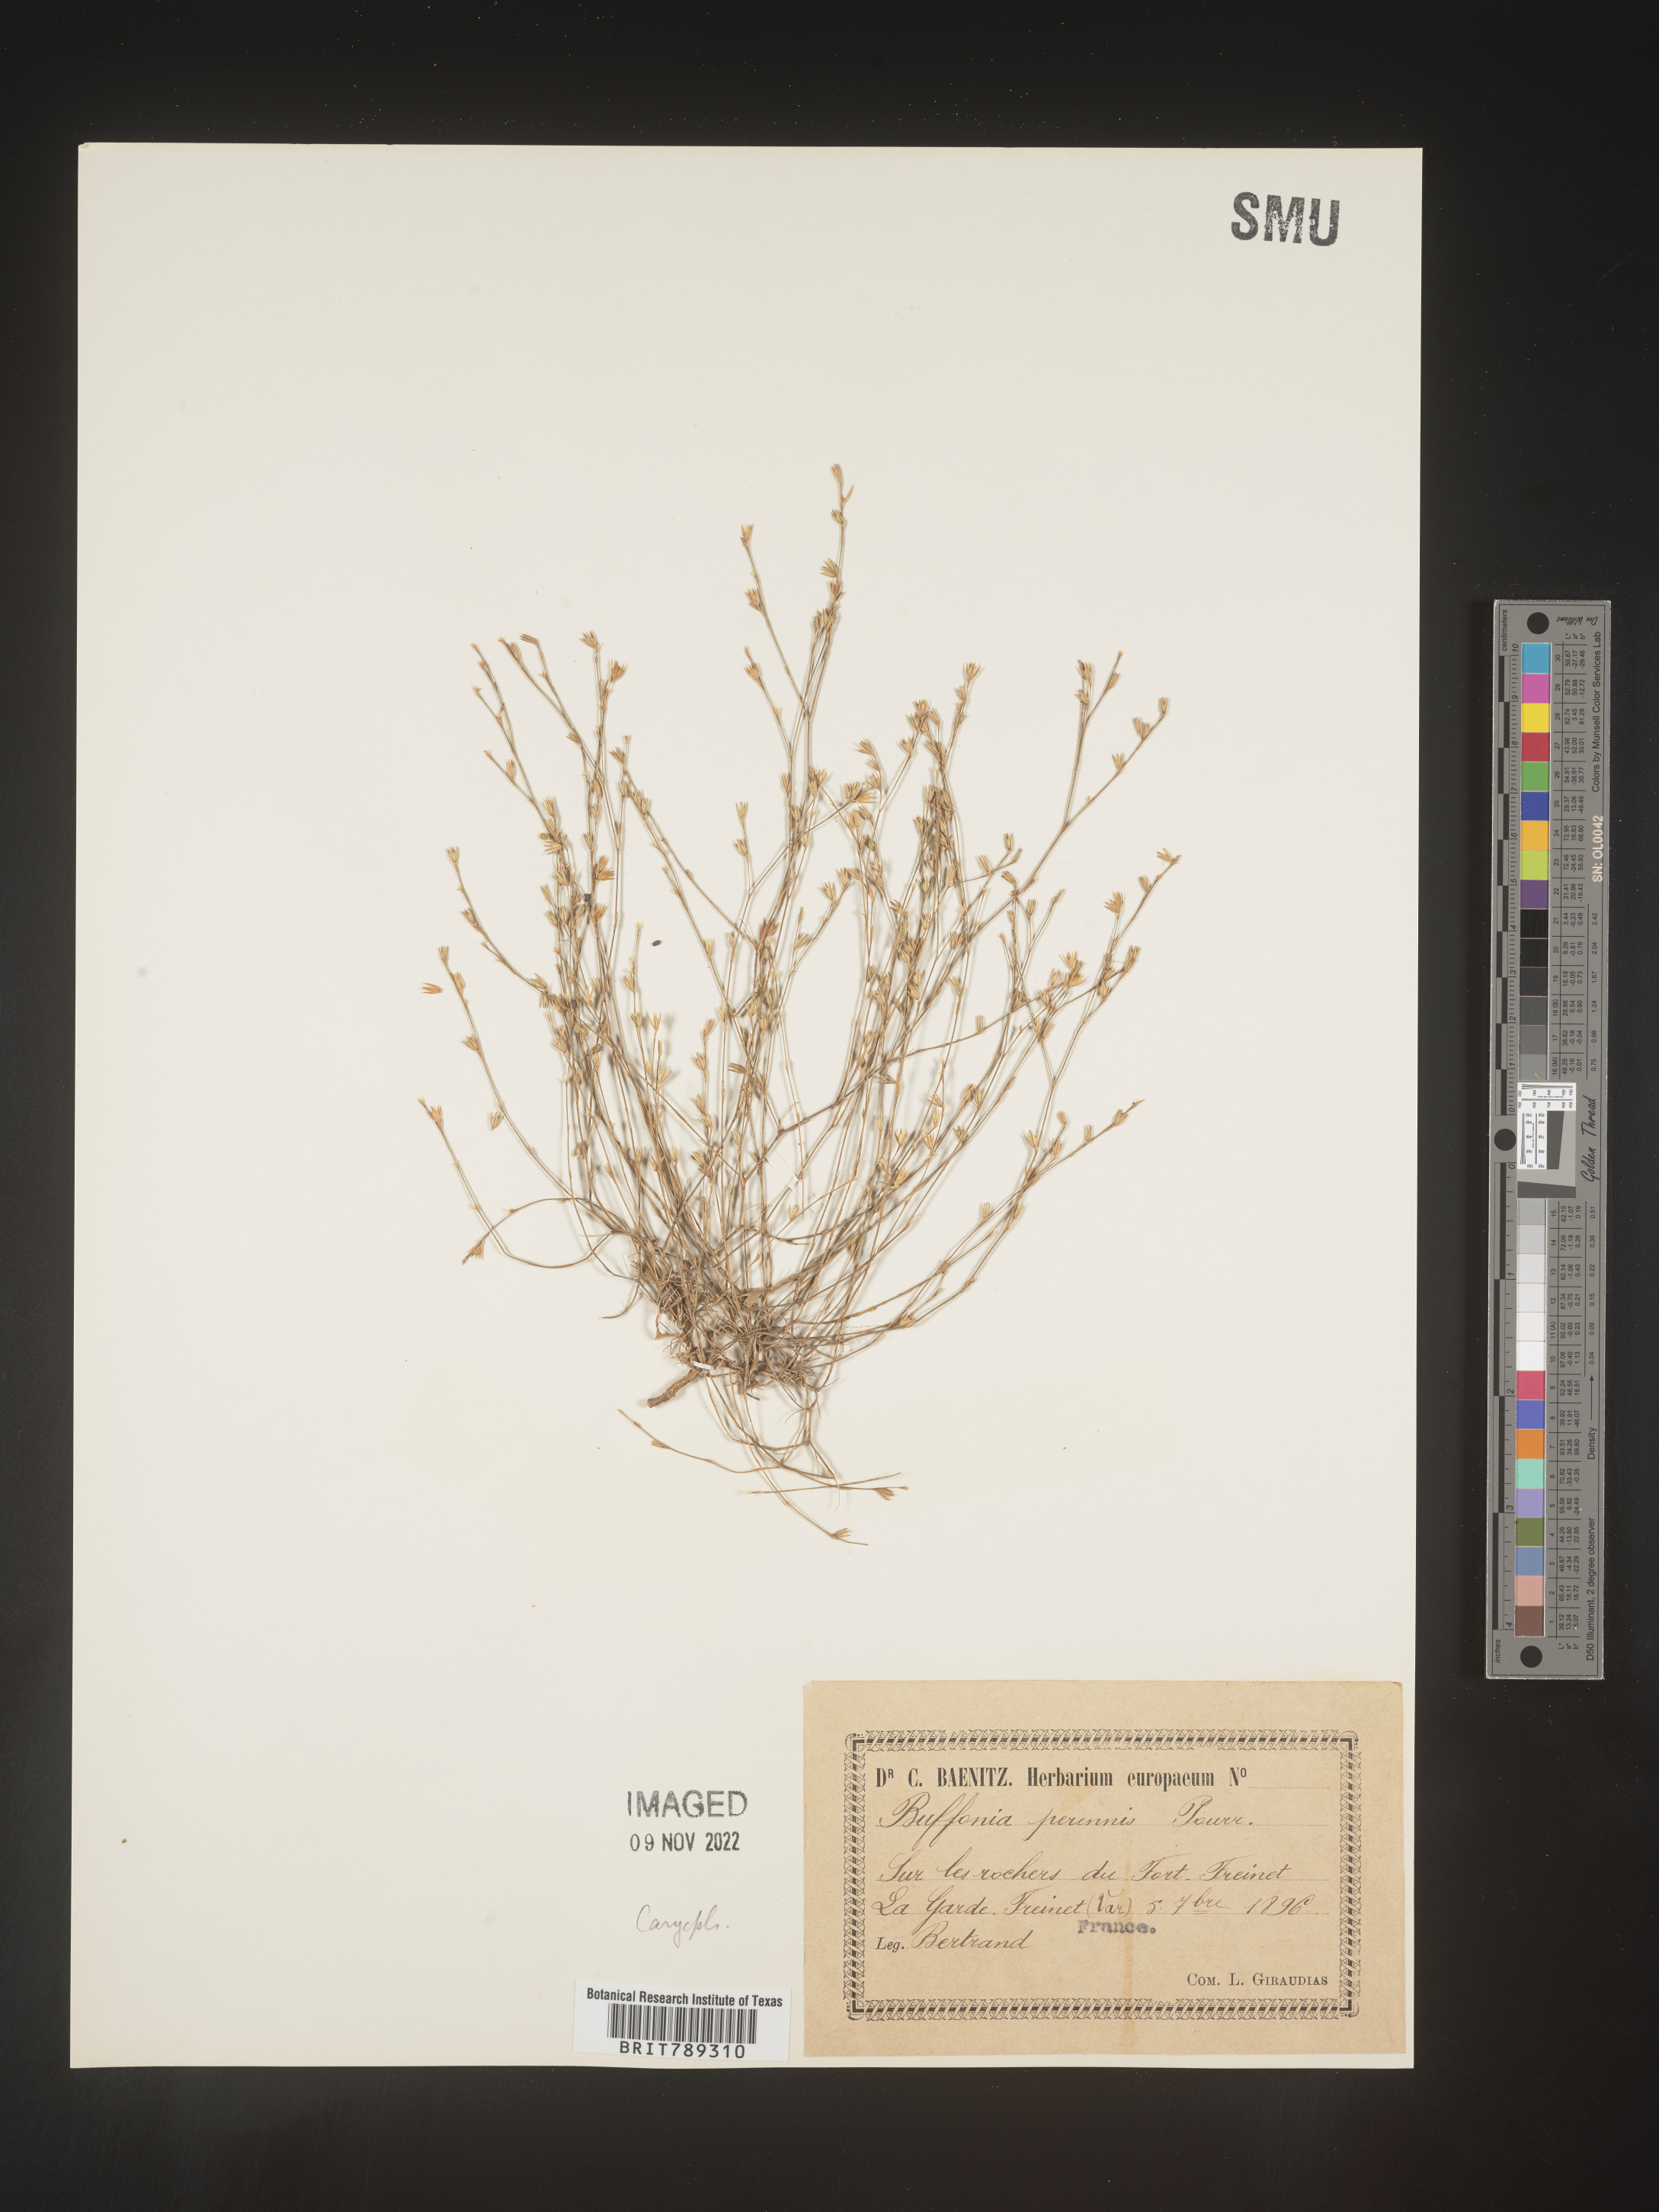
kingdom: Plantae
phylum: Tracheophyta
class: Magnoliopsida
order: Caryophyllales
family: Caryophyllaceae
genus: Buffonia
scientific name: Buffonia
